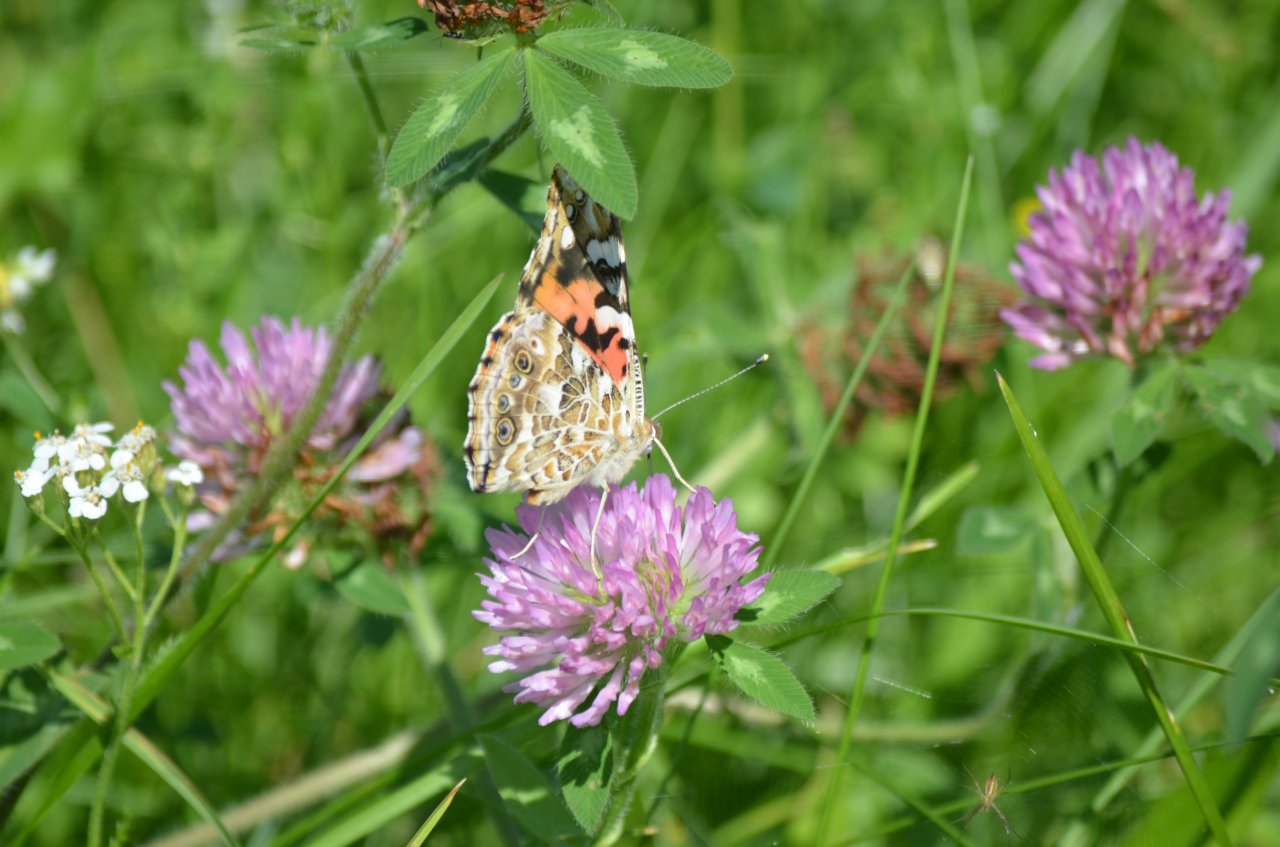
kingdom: Animalia
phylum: Arthropoda
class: Insecta
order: Lepidoptera
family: Nymphalidae
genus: Vanessa
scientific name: Vanessa cardui
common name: Painted Lady
